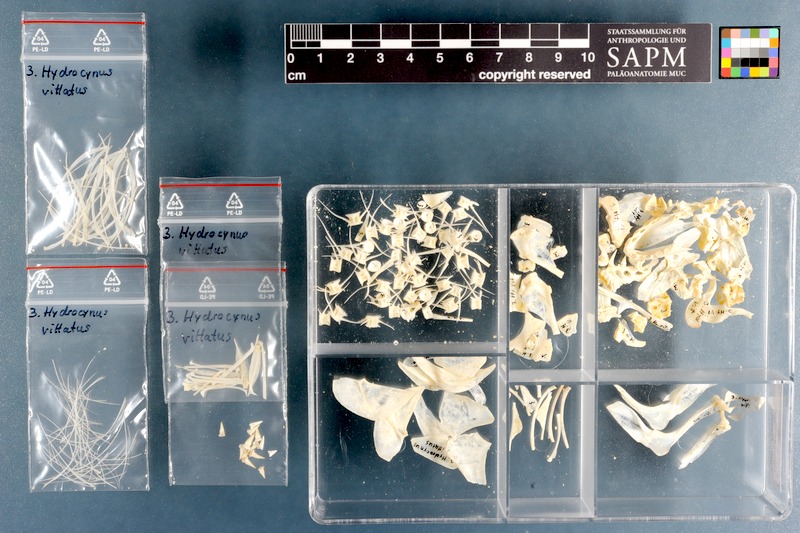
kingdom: Animalia
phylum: Chordata
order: Characiformes
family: Alestidae
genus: Hydrocynus
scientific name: Hydrocynus vittatus
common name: Tigerfish
